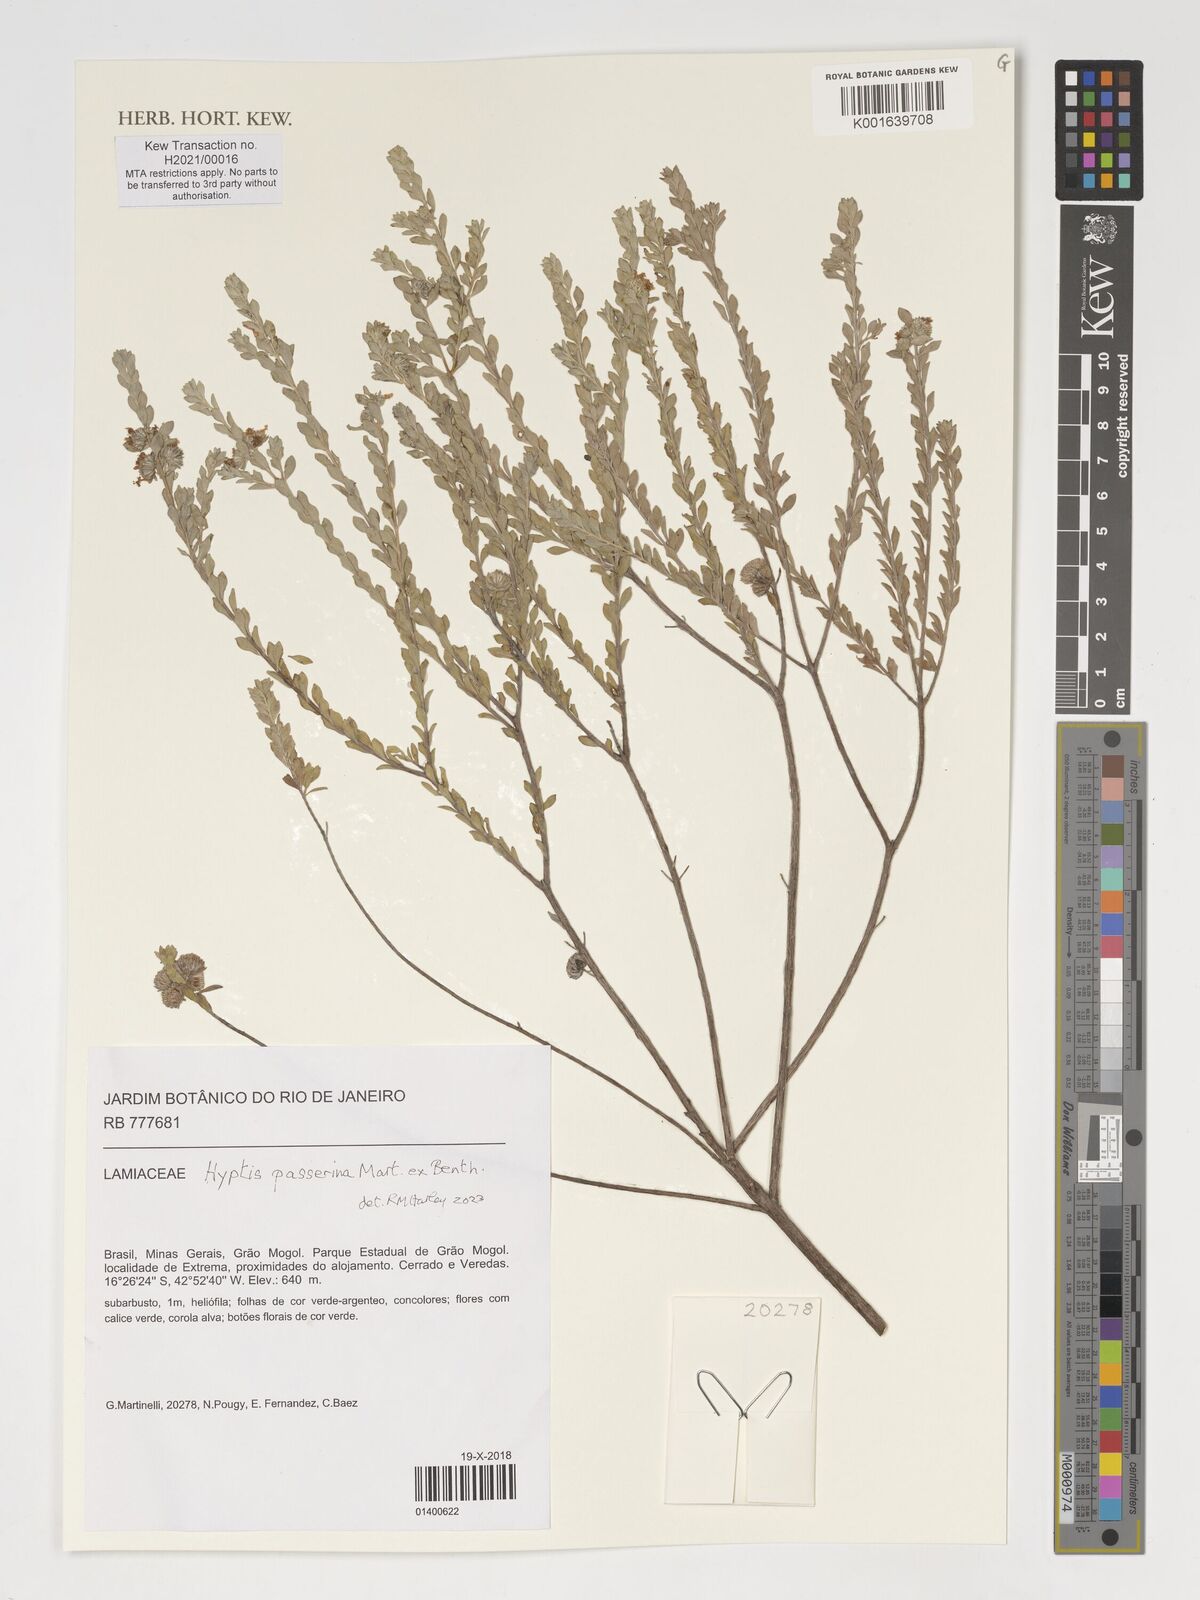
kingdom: Plantae
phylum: Tracheophyta
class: Magnoliopsida
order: Lamiales
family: Lamiaceae
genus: Hyptis
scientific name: Hyptis passerina
